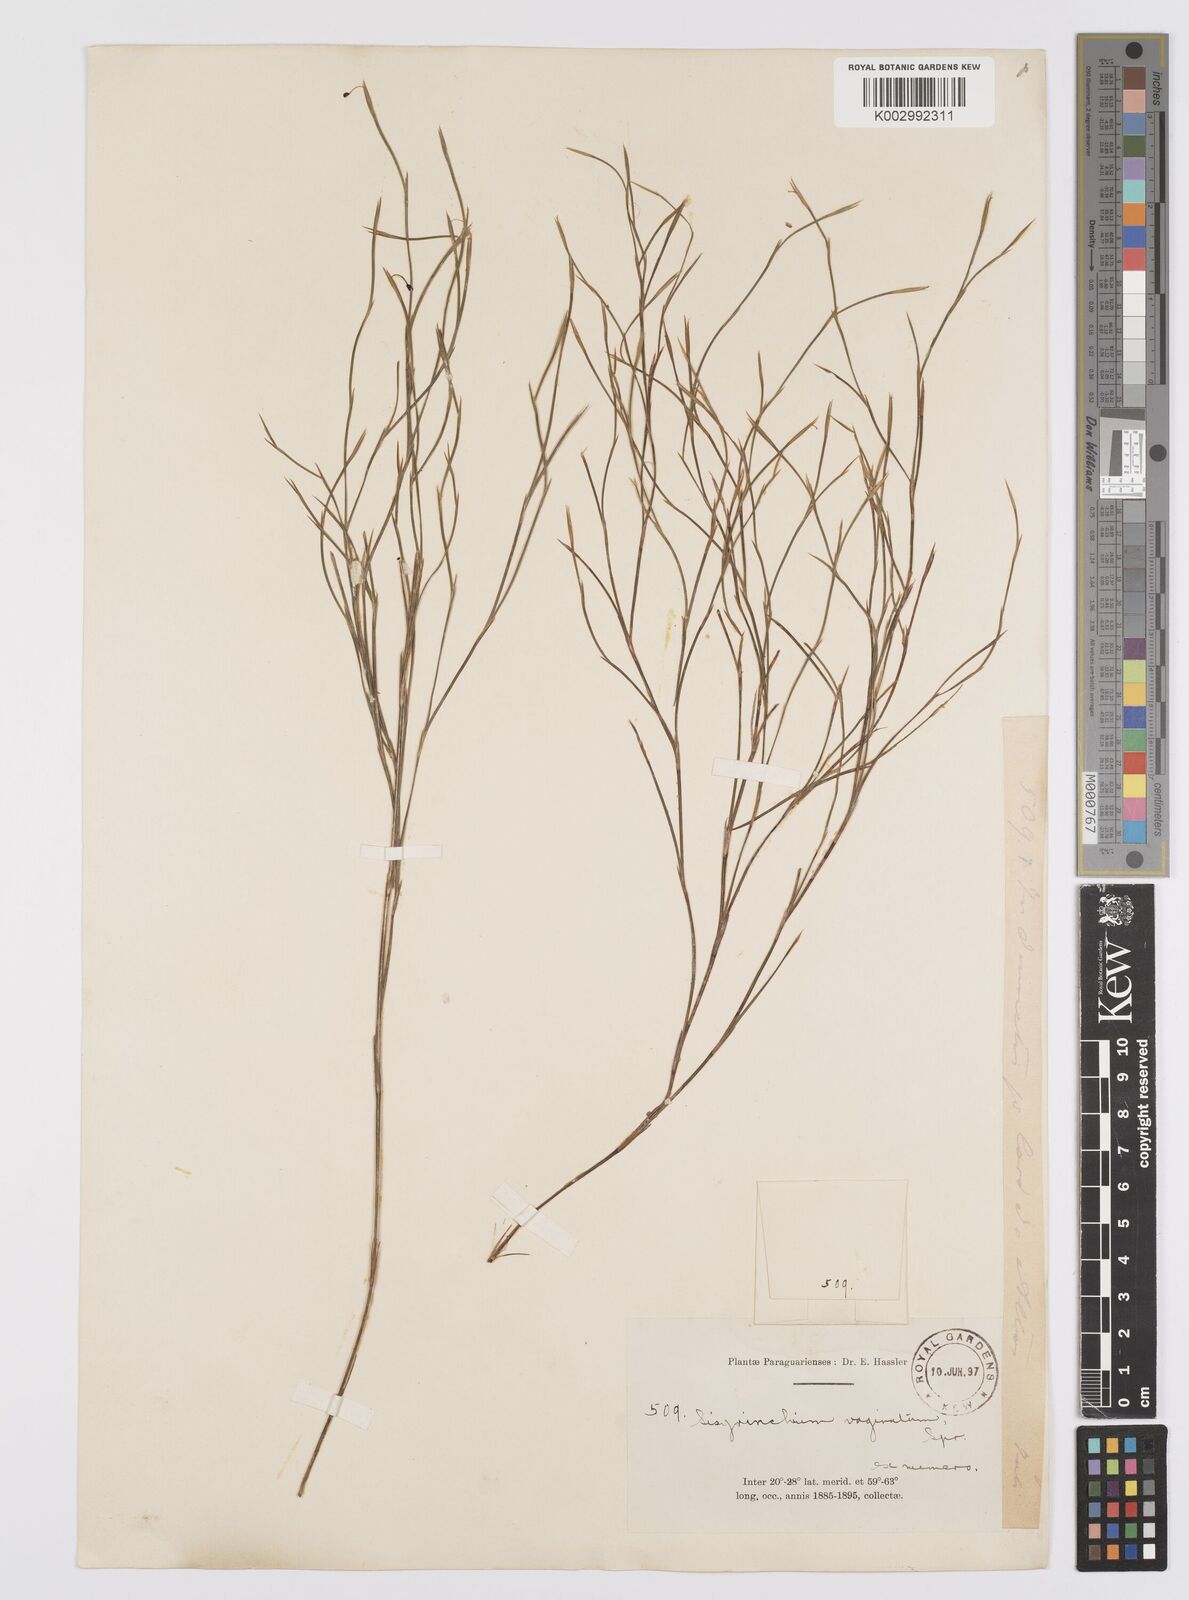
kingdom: Plantae
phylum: Tracheophyta
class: Liliopsida
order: Asparagales
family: Iridaceae
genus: Sisyrinchium
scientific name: Sisyrinchium vaginatum
